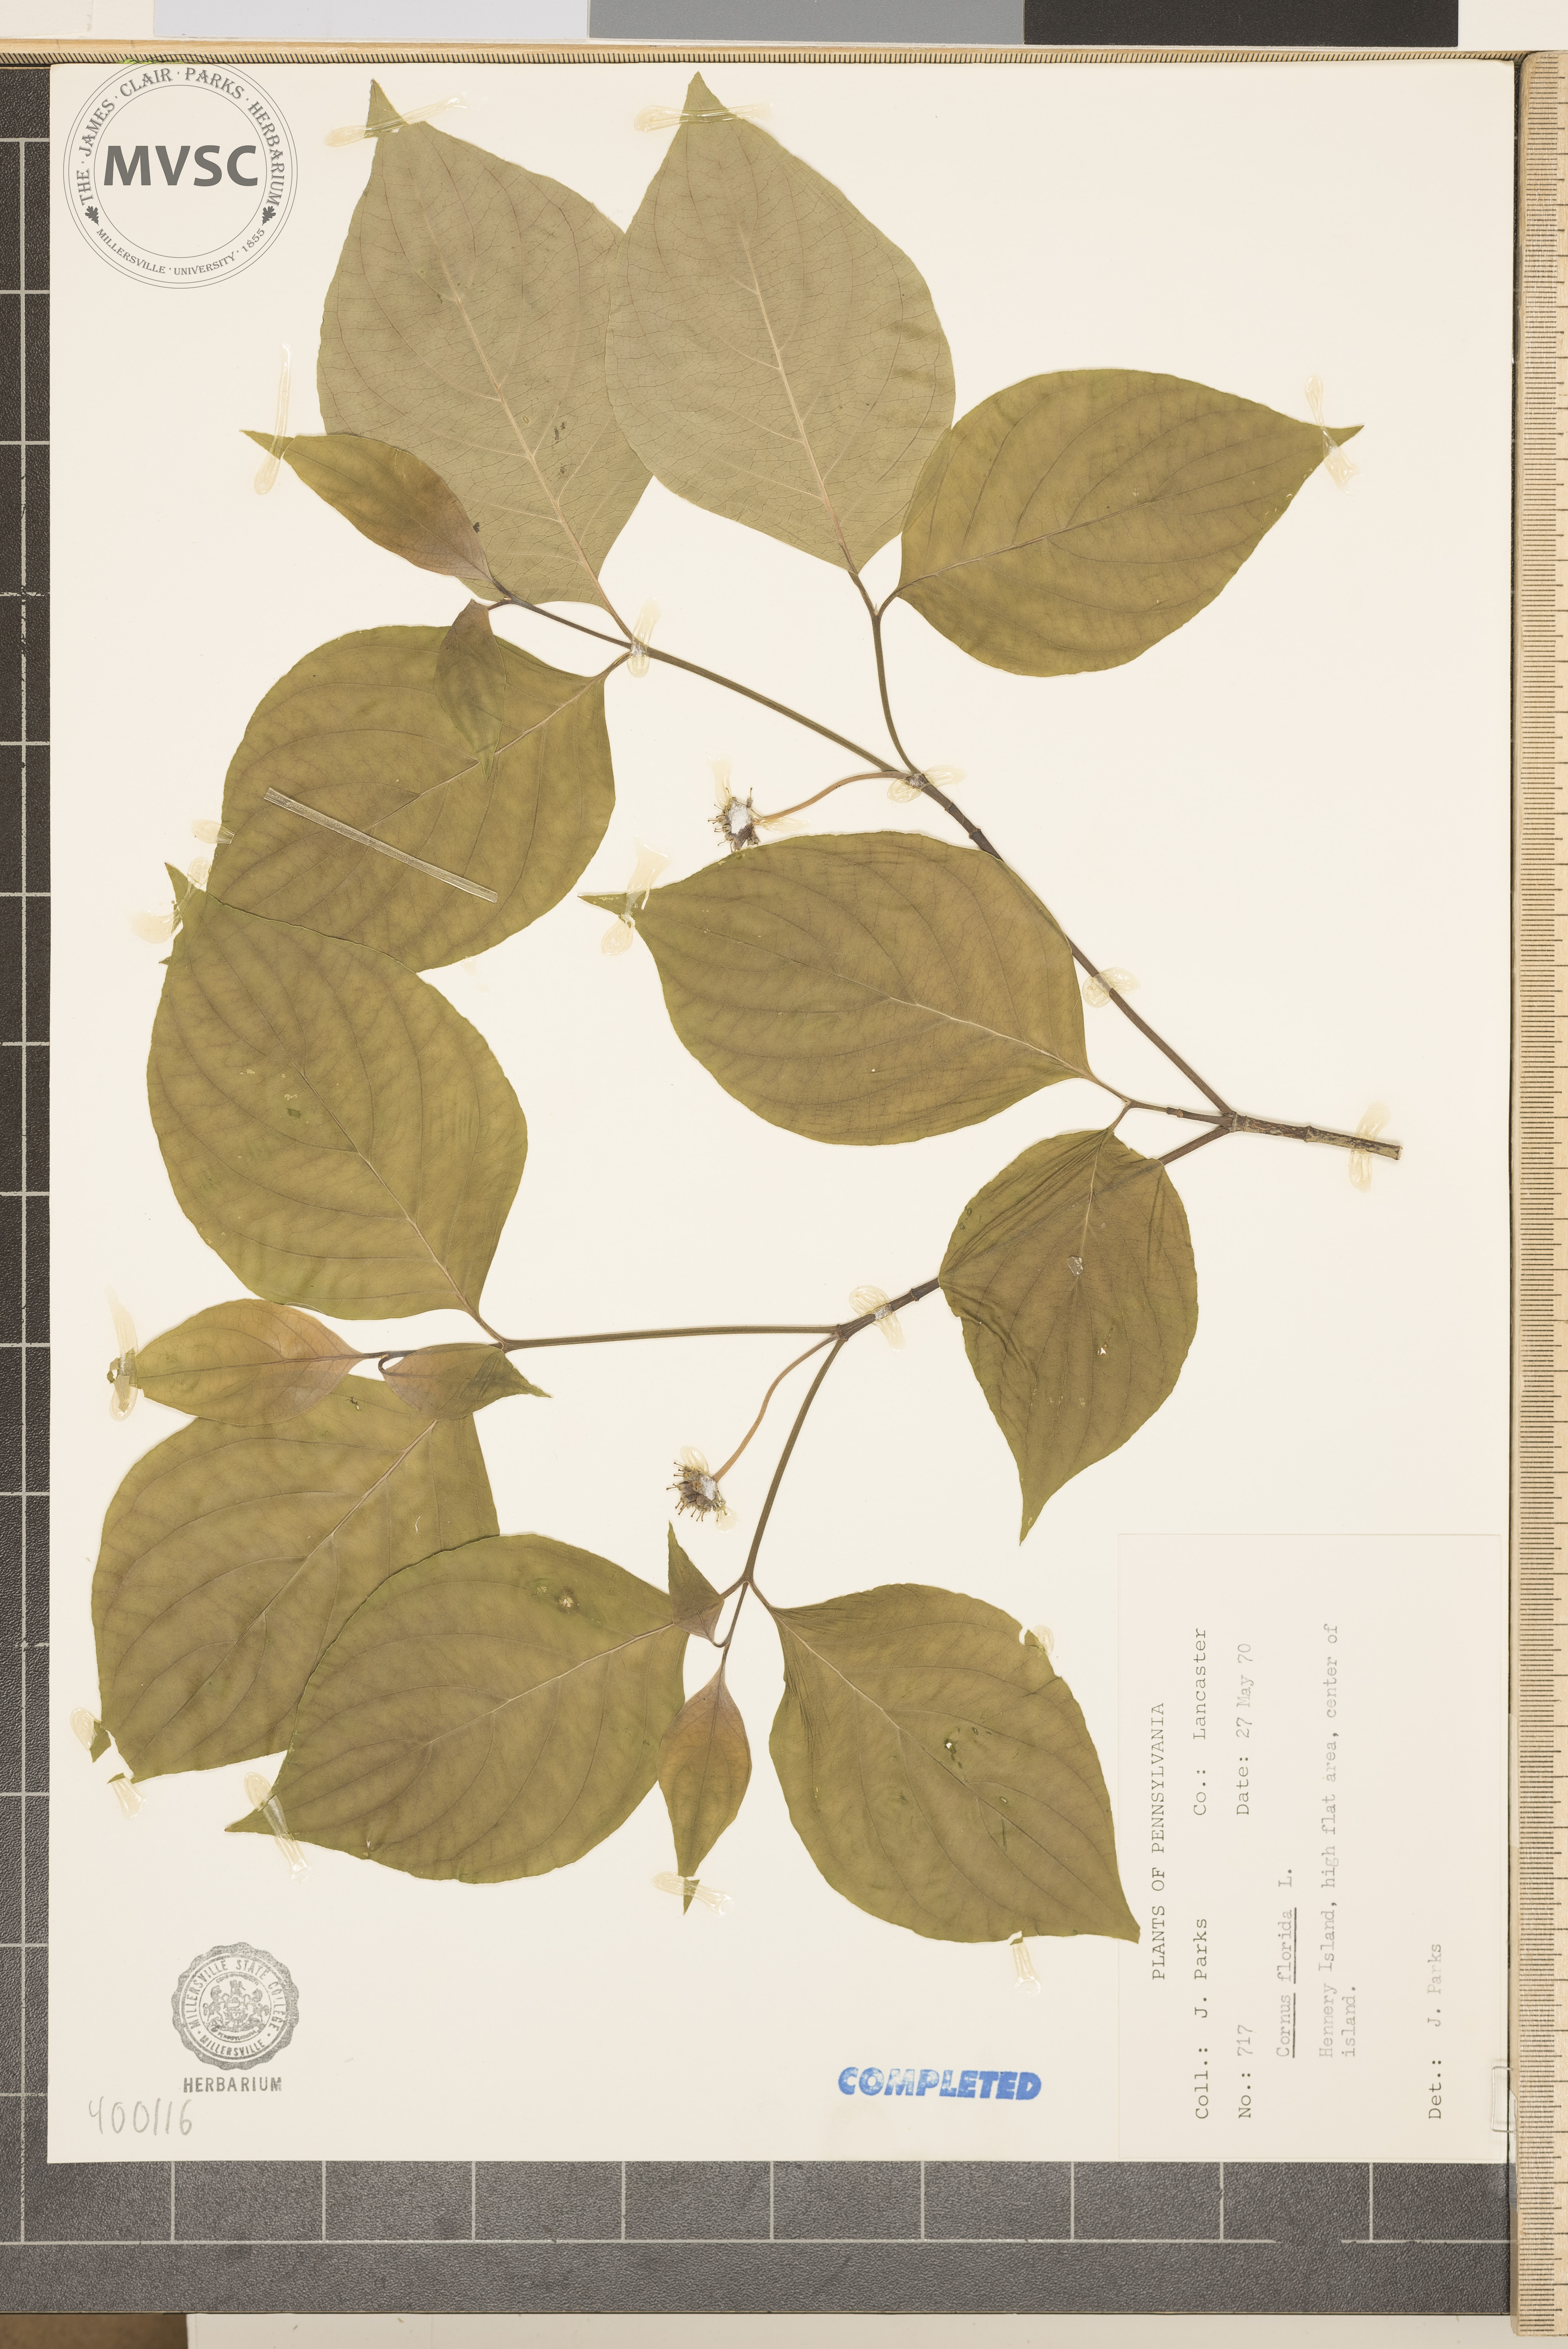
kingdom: Plantae
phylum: Tracheophyta
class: Magnoliopsida
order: Cornales
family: Cornaceae
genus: Cornus
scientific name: Cornus florida
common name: flowering dogwood
